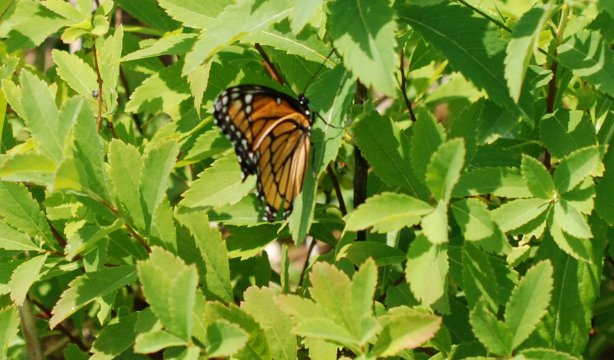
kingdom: Animalia
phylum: Arthropoda
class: Insecta
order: Lepidoptera
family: Nymphalidae
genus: Limenitis
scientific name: Limenitis archippus
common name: Viceroy
